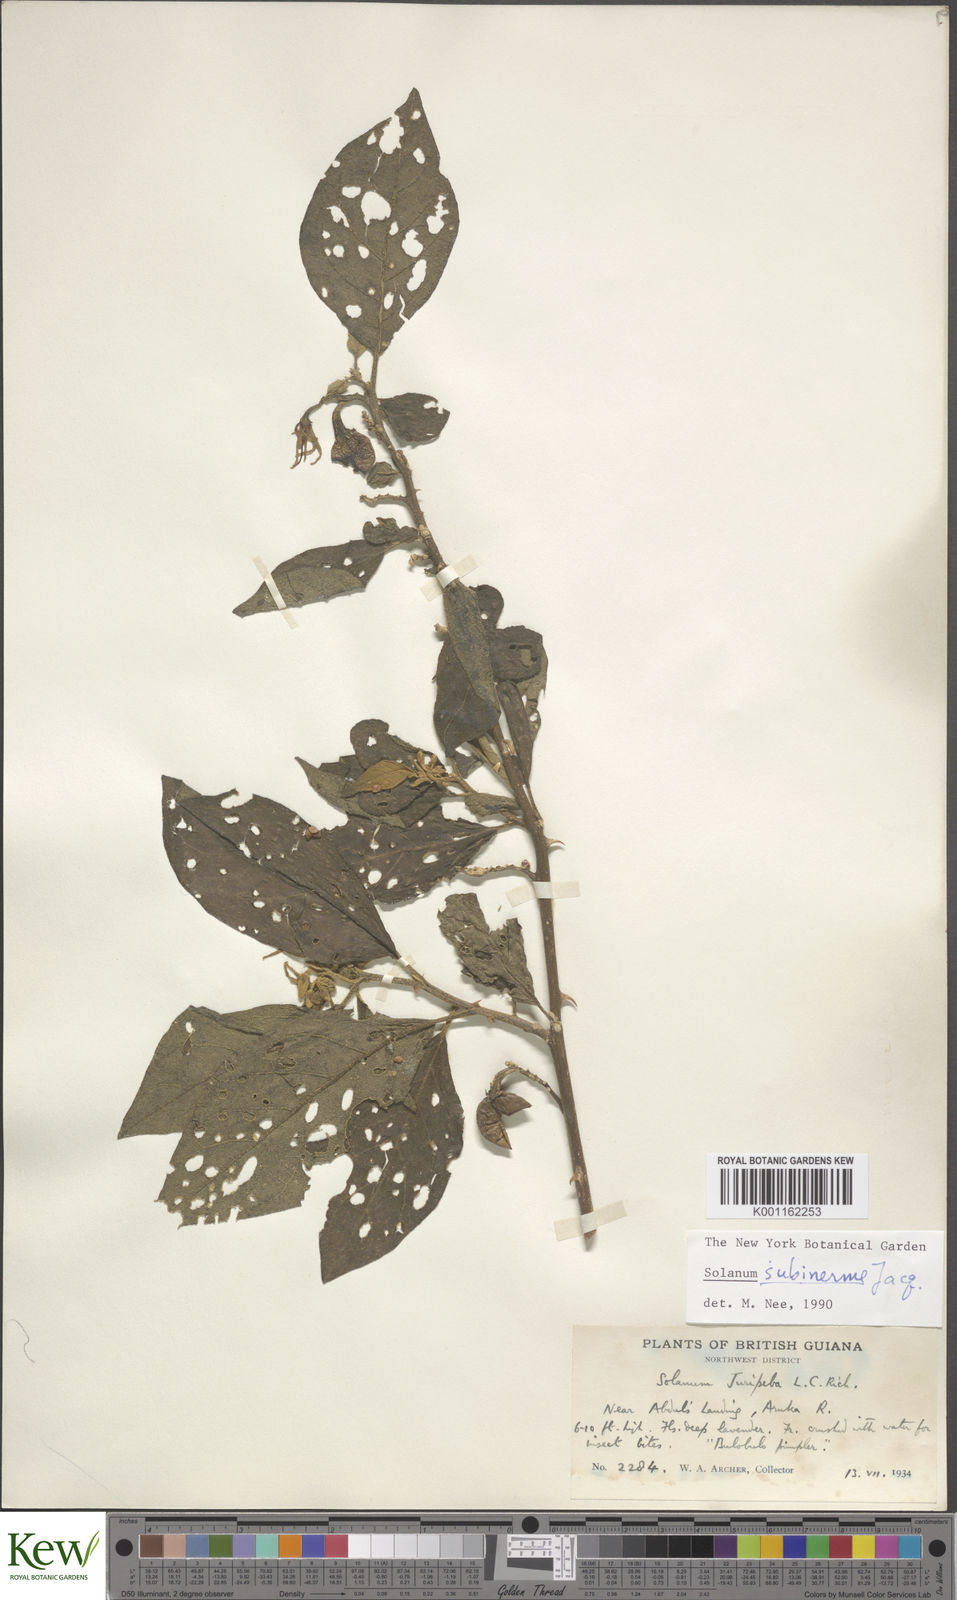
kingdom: Plantae
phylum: Tracheophyta
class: Magnoliopsida
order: Solanales
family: Solanaceae
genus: Solanum
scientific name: Solanum subinerme
